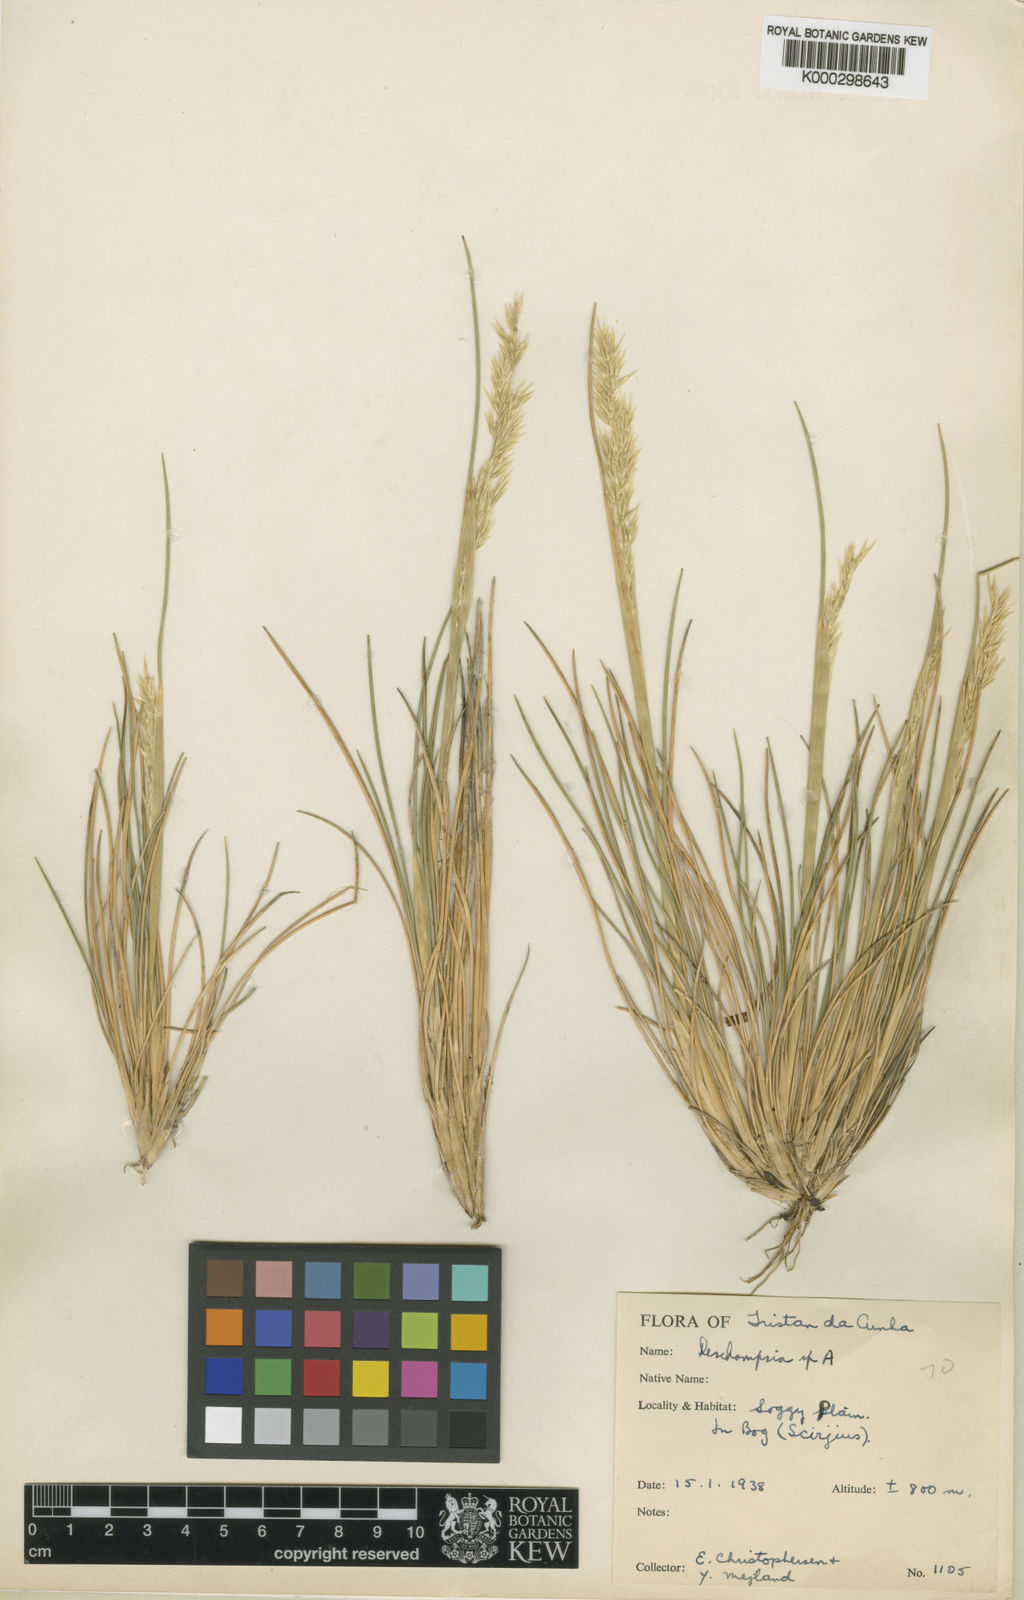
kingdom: Plantae
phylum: Tracheophyta
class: Liliopsida
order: Poales
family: Poaceae
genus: Deschampsia
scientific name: Deschampsia
